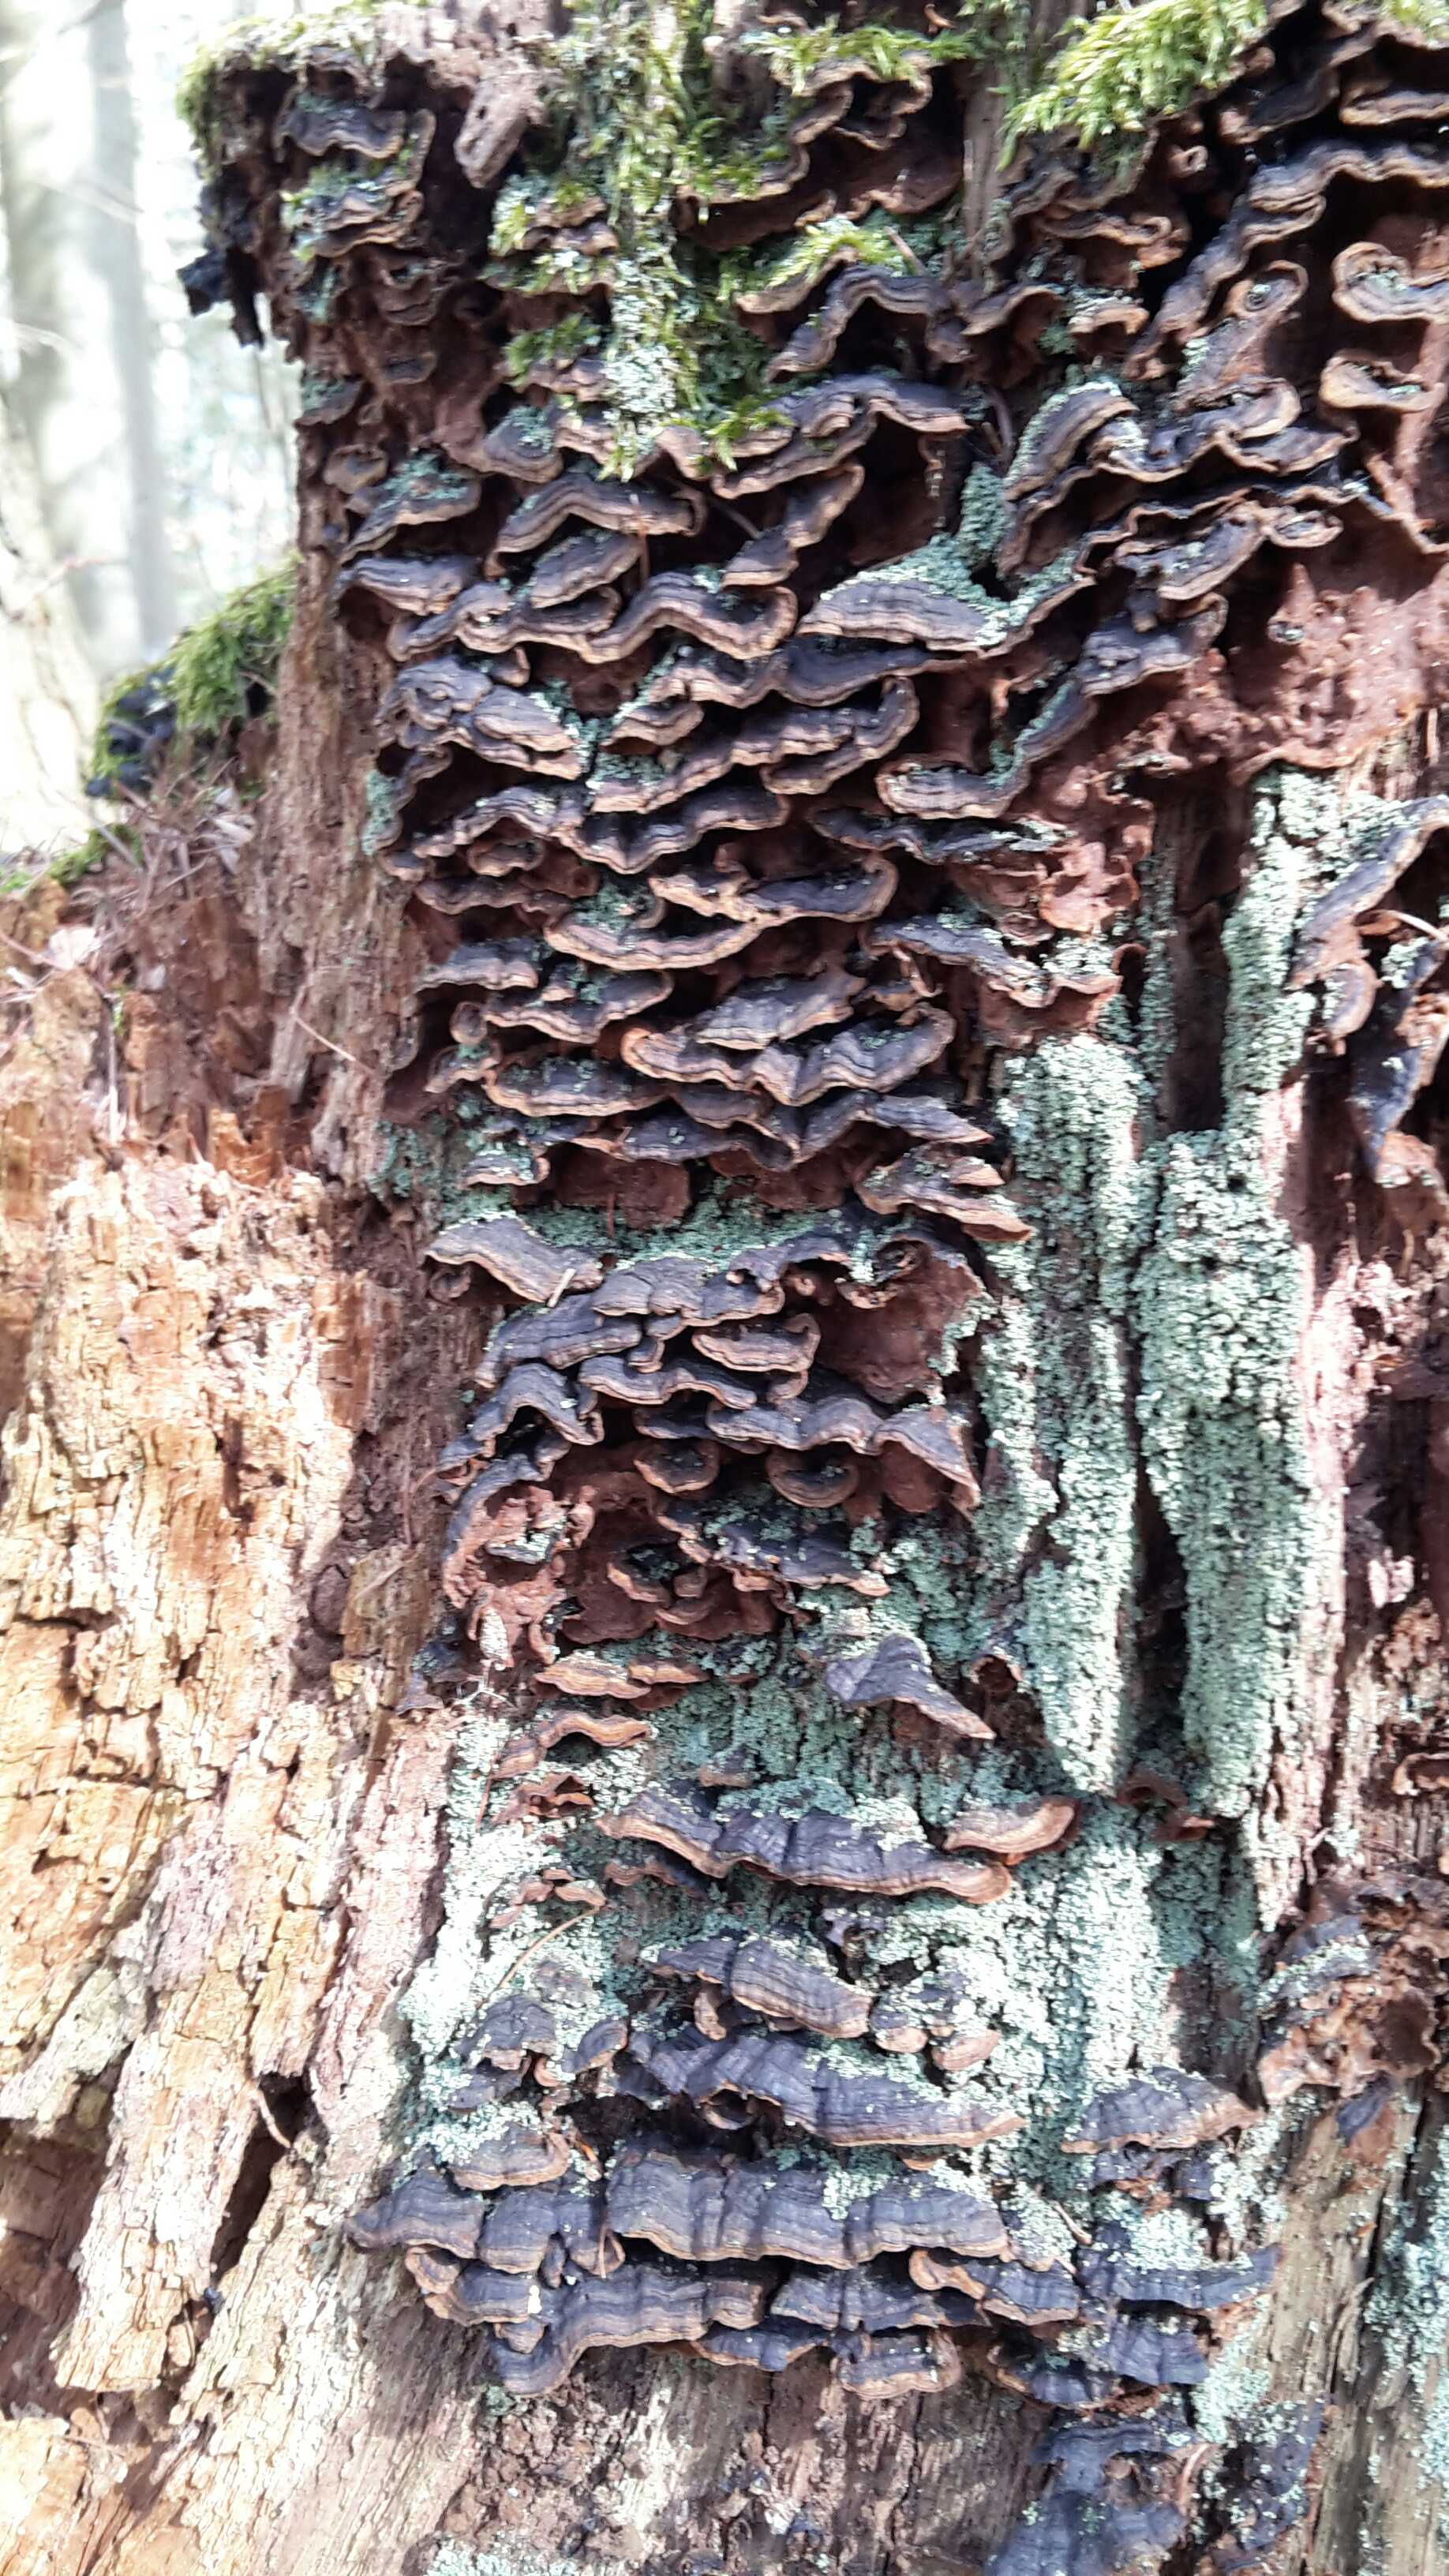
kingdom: Fungi
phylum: Basidiomycota
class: Agaricomycetes
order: Hymenochaetales
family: Hymenochaetaceae
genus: Hymenochaete
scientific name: Hymenochaete rubiginosa
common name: stiv ruslædersvamp
